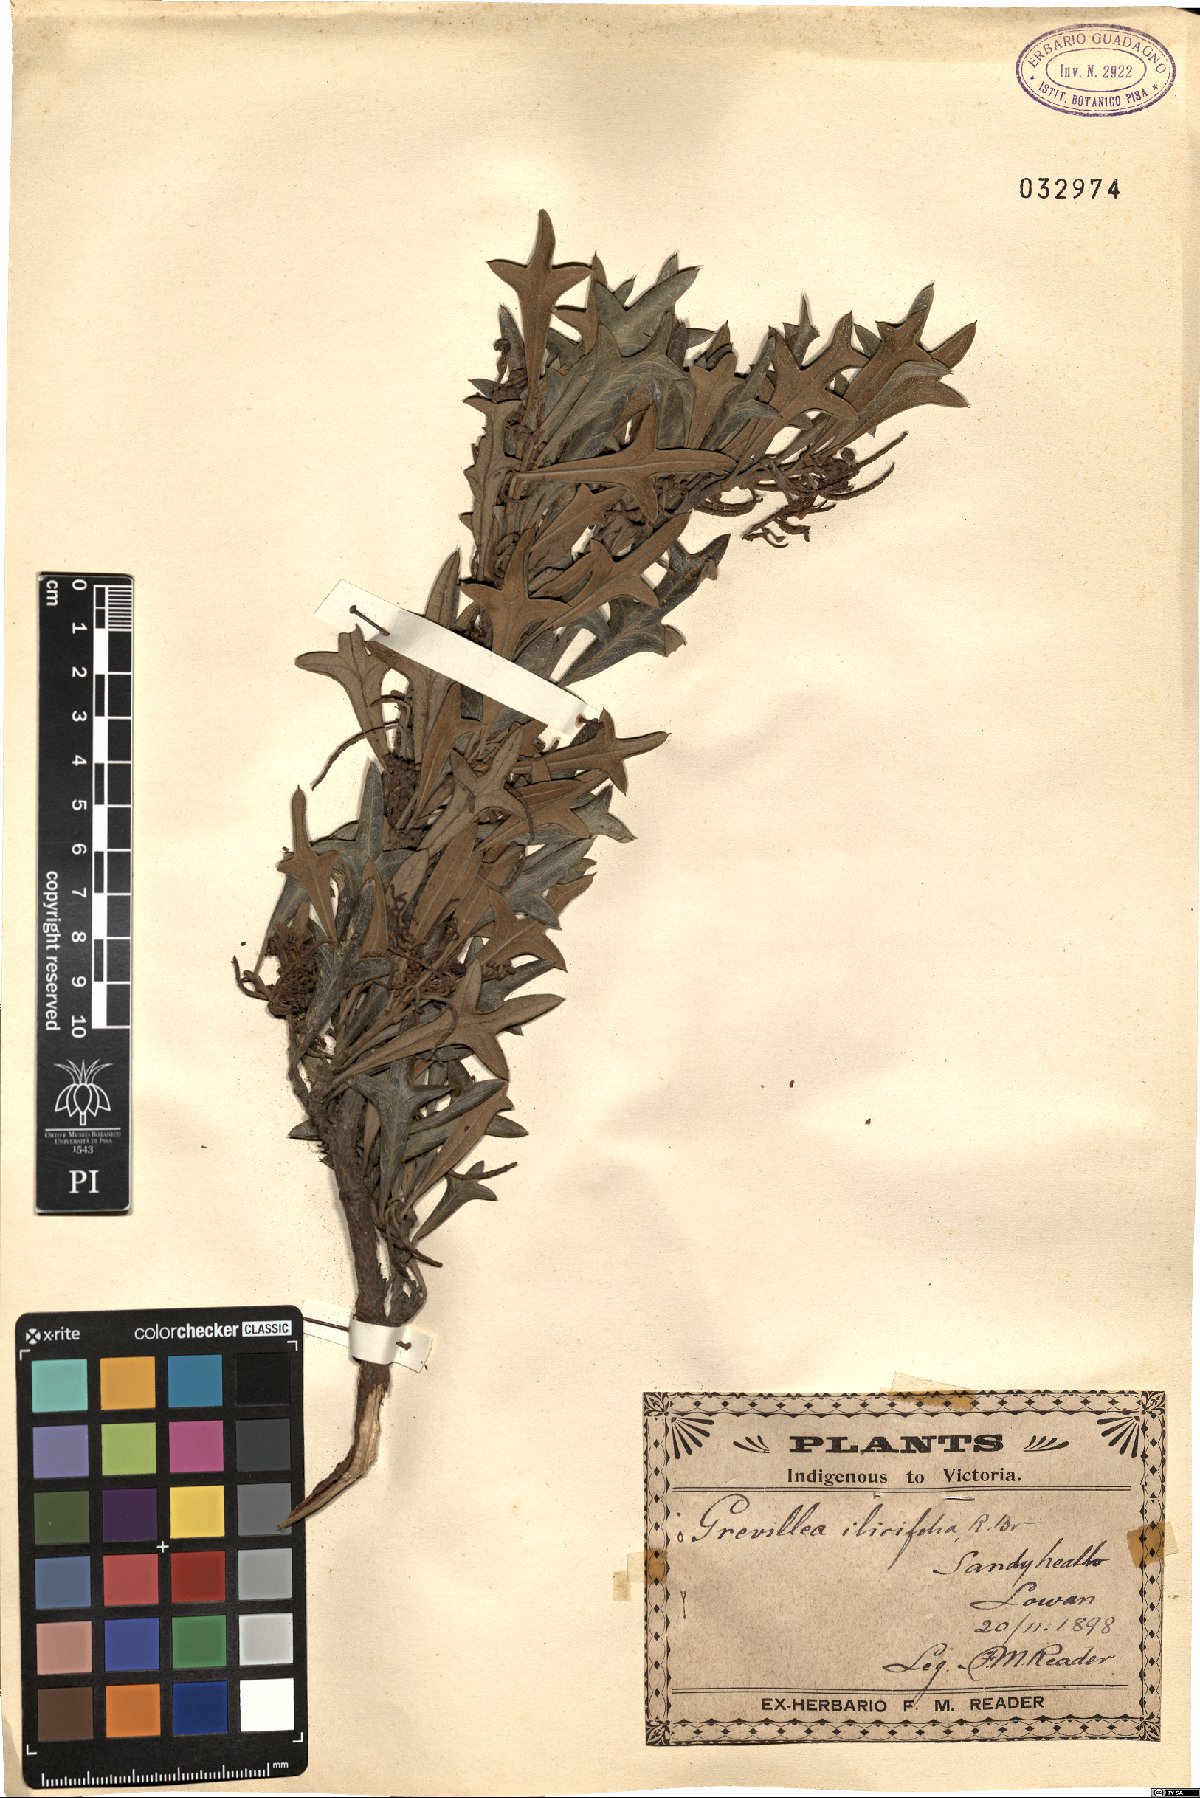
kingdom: Plantae
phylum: Tracheophyta
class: Magnoliopsida
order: Proteales
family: Proteaceae
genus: Grevillea
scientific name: Grevillea ilicifolia
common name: Holly grevillea
